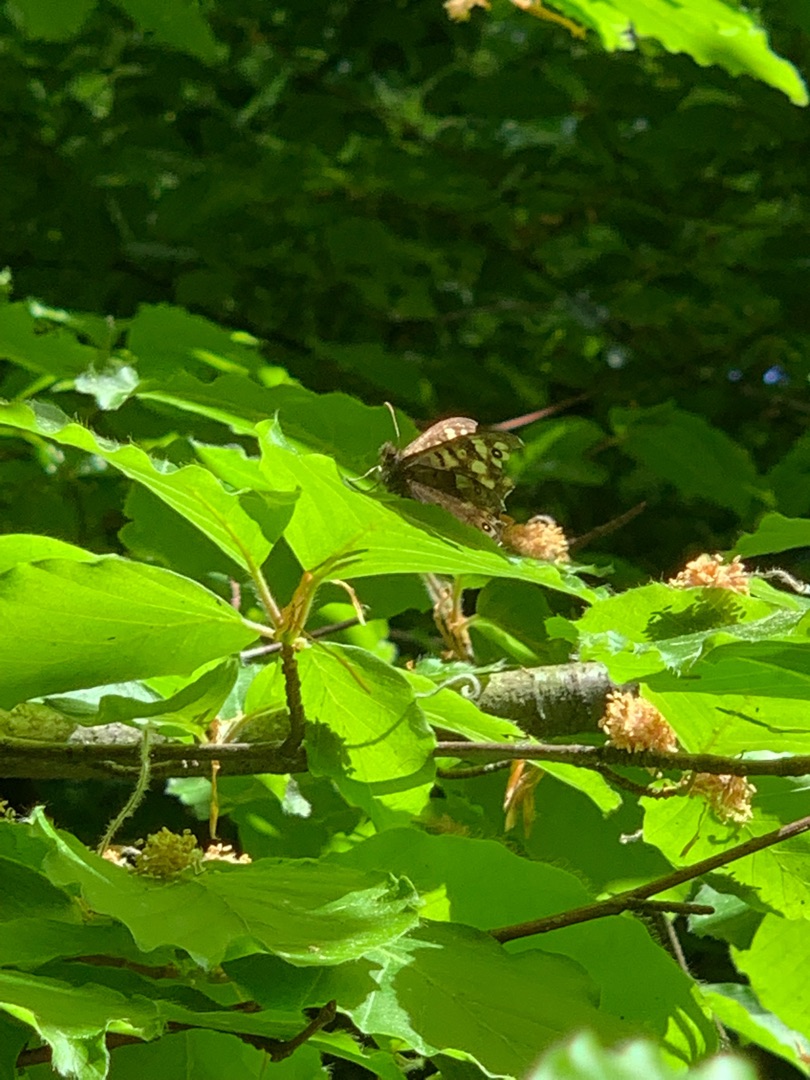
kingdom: Animalia
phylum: Arthropoda
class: Insecta
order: Lepidoptera
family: Nymphalidae
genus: Pararge
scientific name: Pararge aegeria
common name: Skovrandøje
